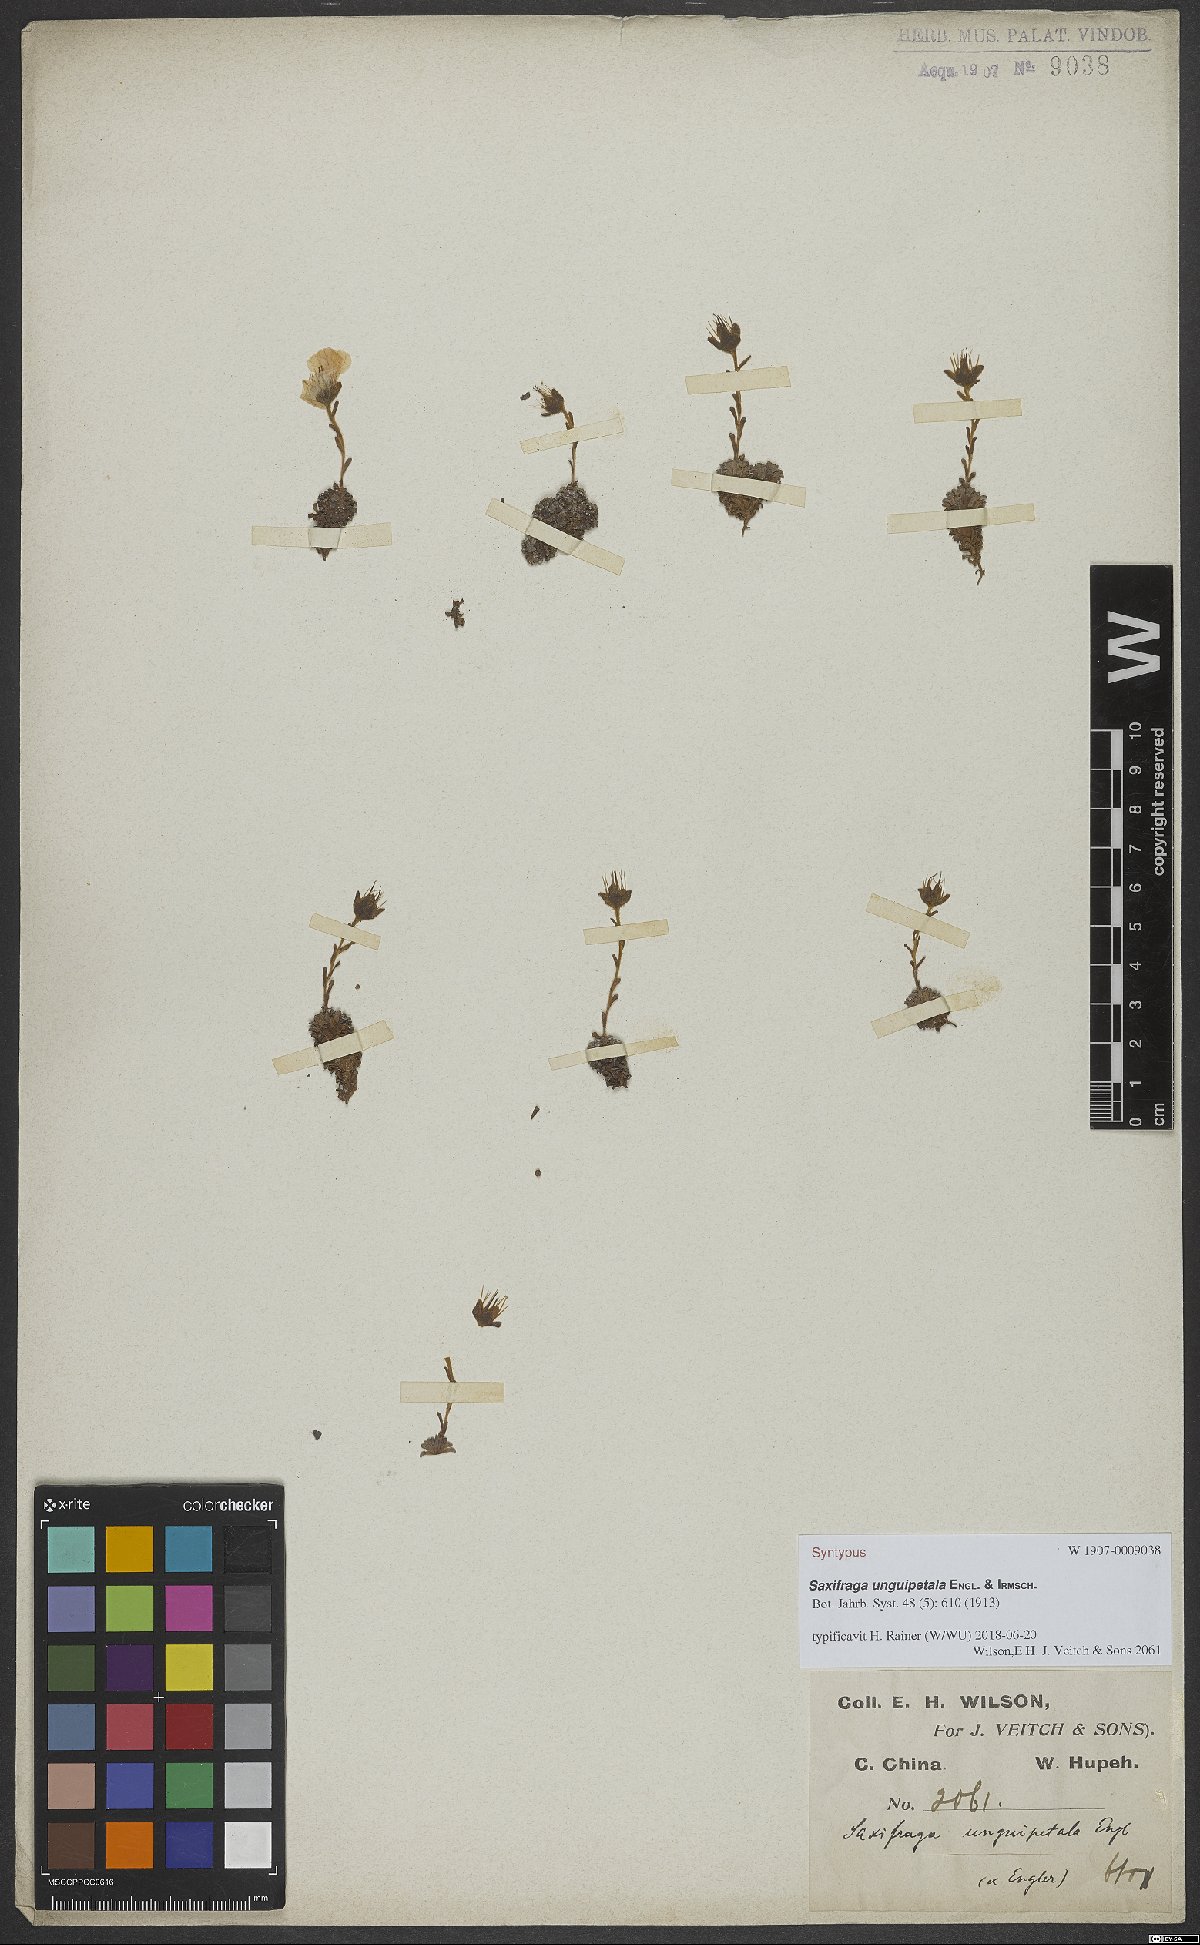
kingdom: Plantae
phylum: Tracheophyta
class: Magnoliopsida
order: Saxifragales
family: Saxifragaceae
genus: Saxifraga
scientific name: Saxifraga unguipetala
